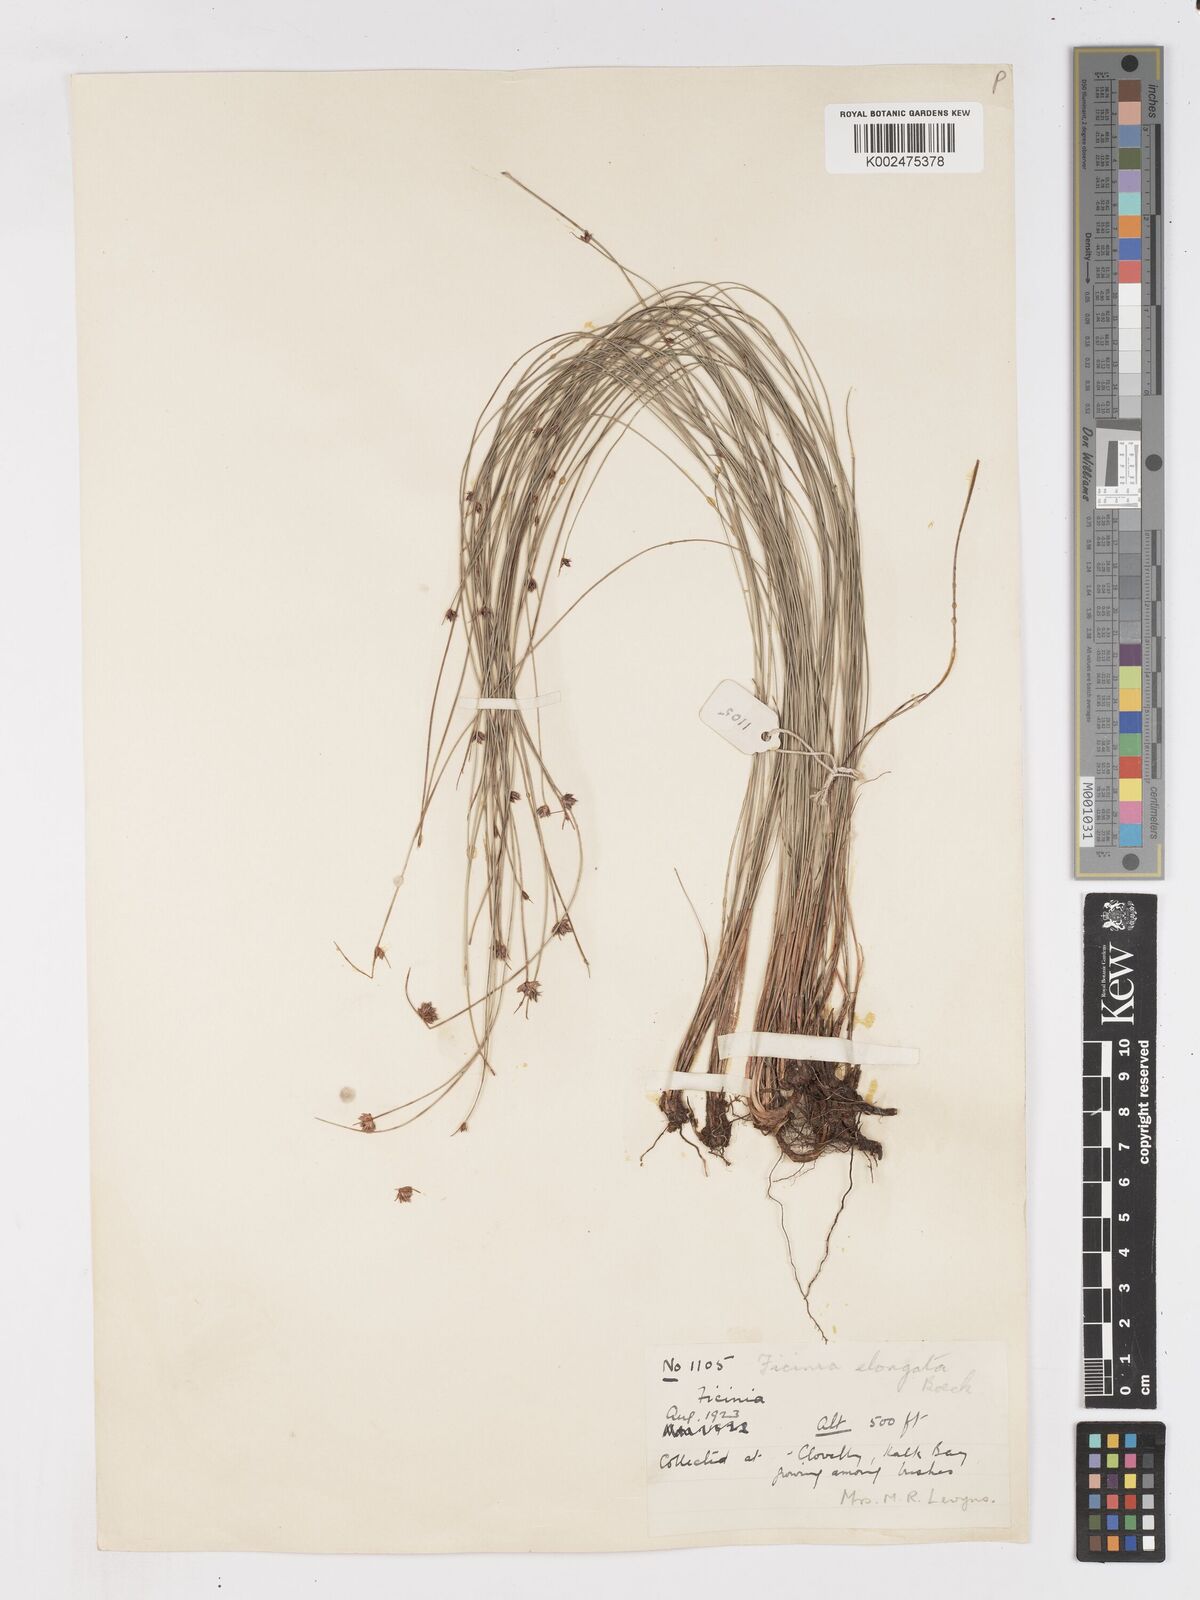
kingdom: Plantae
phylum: Tracheophyta
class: Liliopsida
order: Poales
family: Cyperaceae
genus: Ficinia
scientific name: Ficinia acuminata
